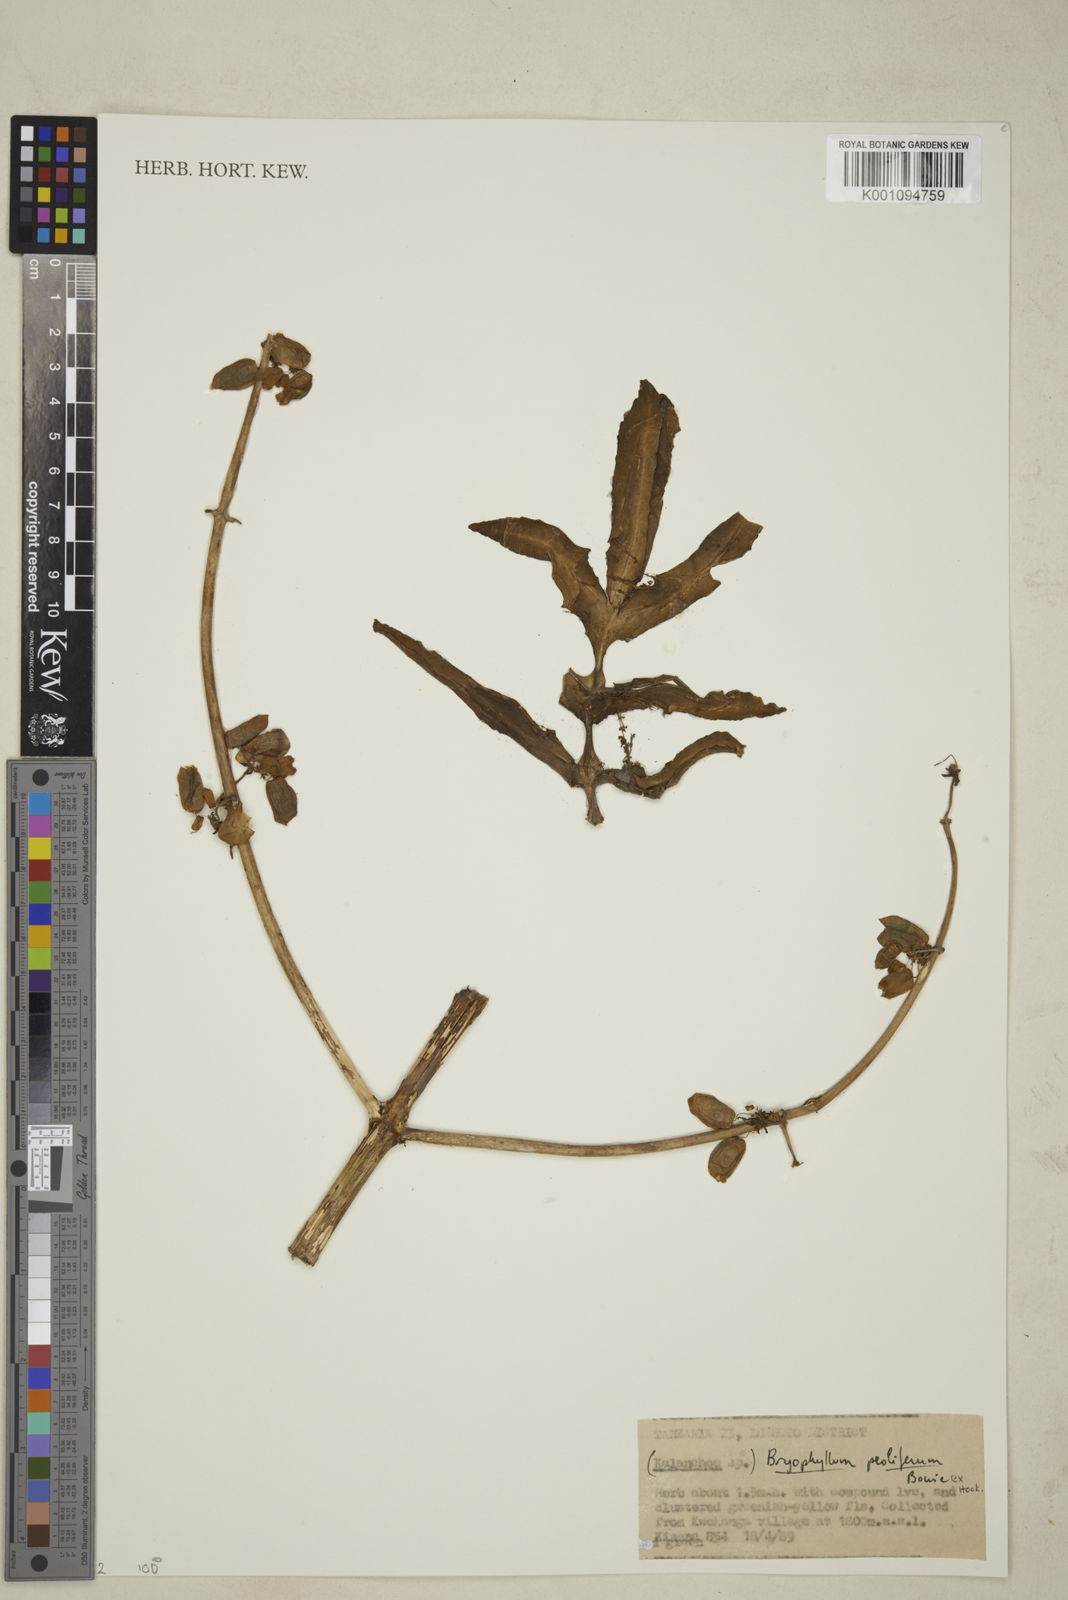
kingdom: Plantae
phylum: Tracheophyta
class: Magnoliopsida
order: Saxifragales
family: Crassulaceae
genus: Kalanchoe
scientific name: Kalanchoe prolifera
